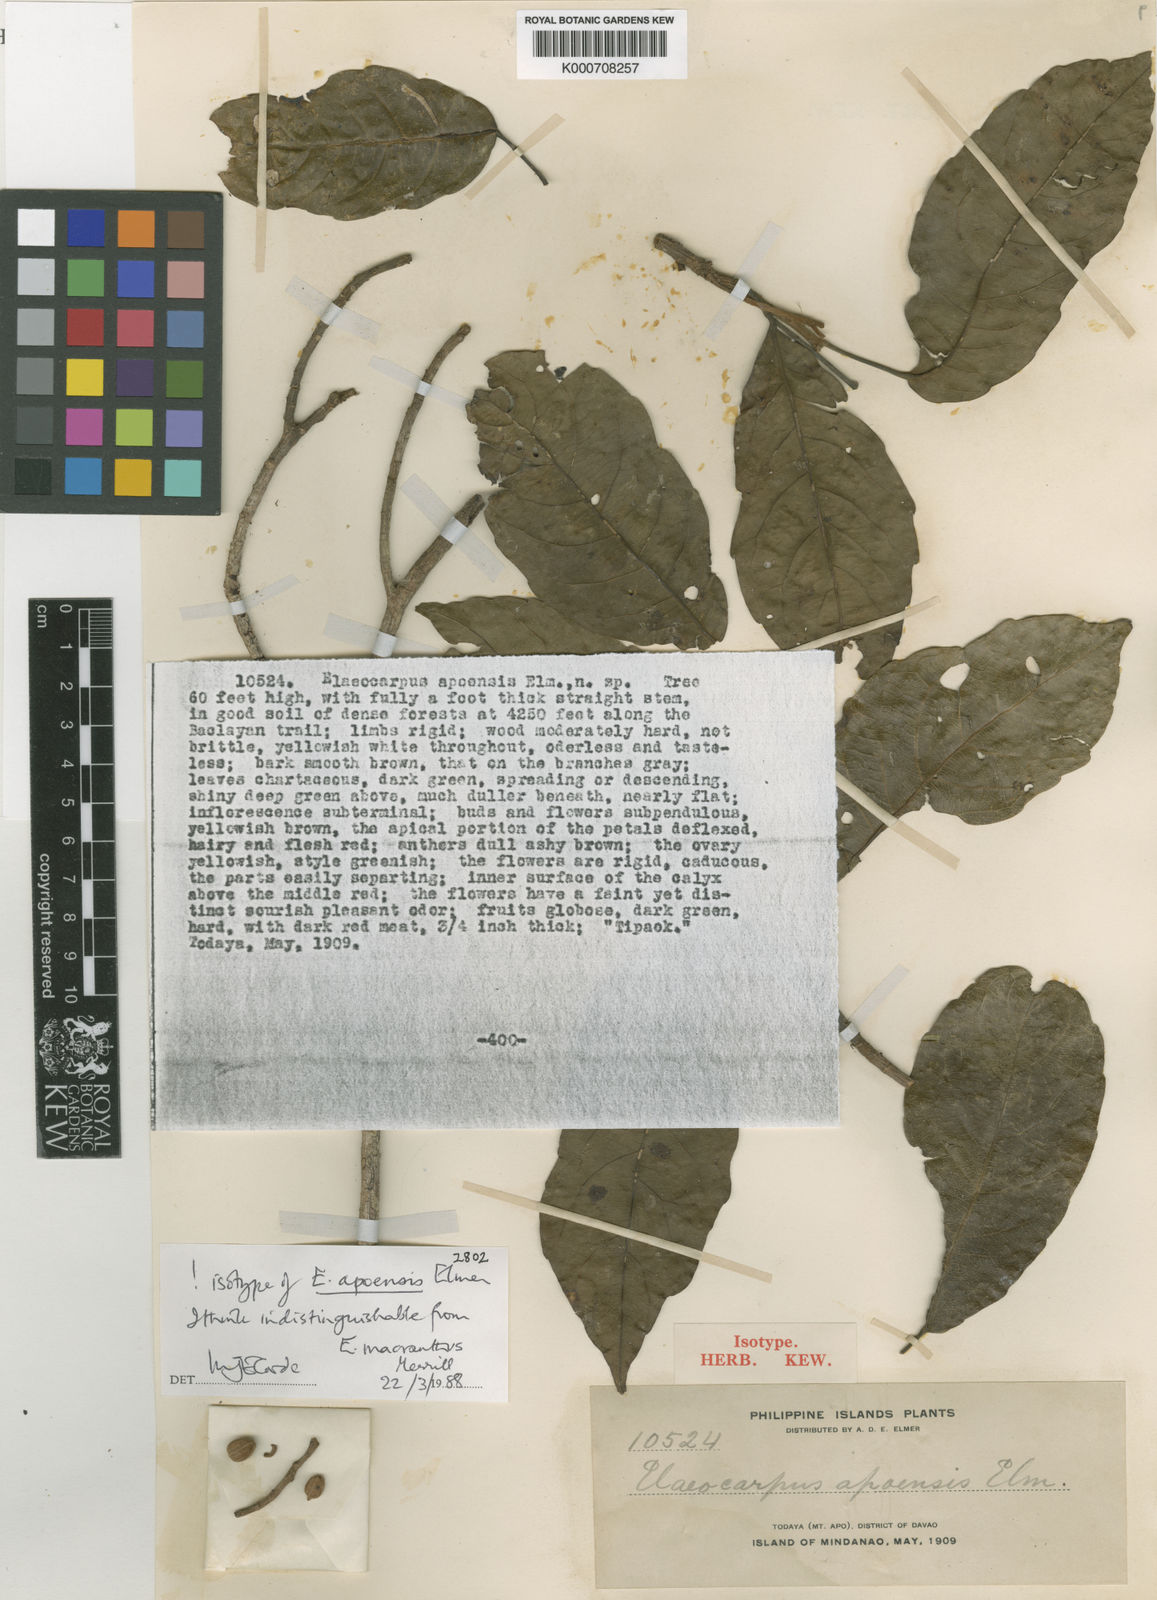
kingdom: Plantae
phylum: Tracheophyta
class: Magnoliopsida
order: Oxalidales
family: Elaeocarpaceae
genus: Elaeocarpus
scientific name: Elaeocarpus macranthus
